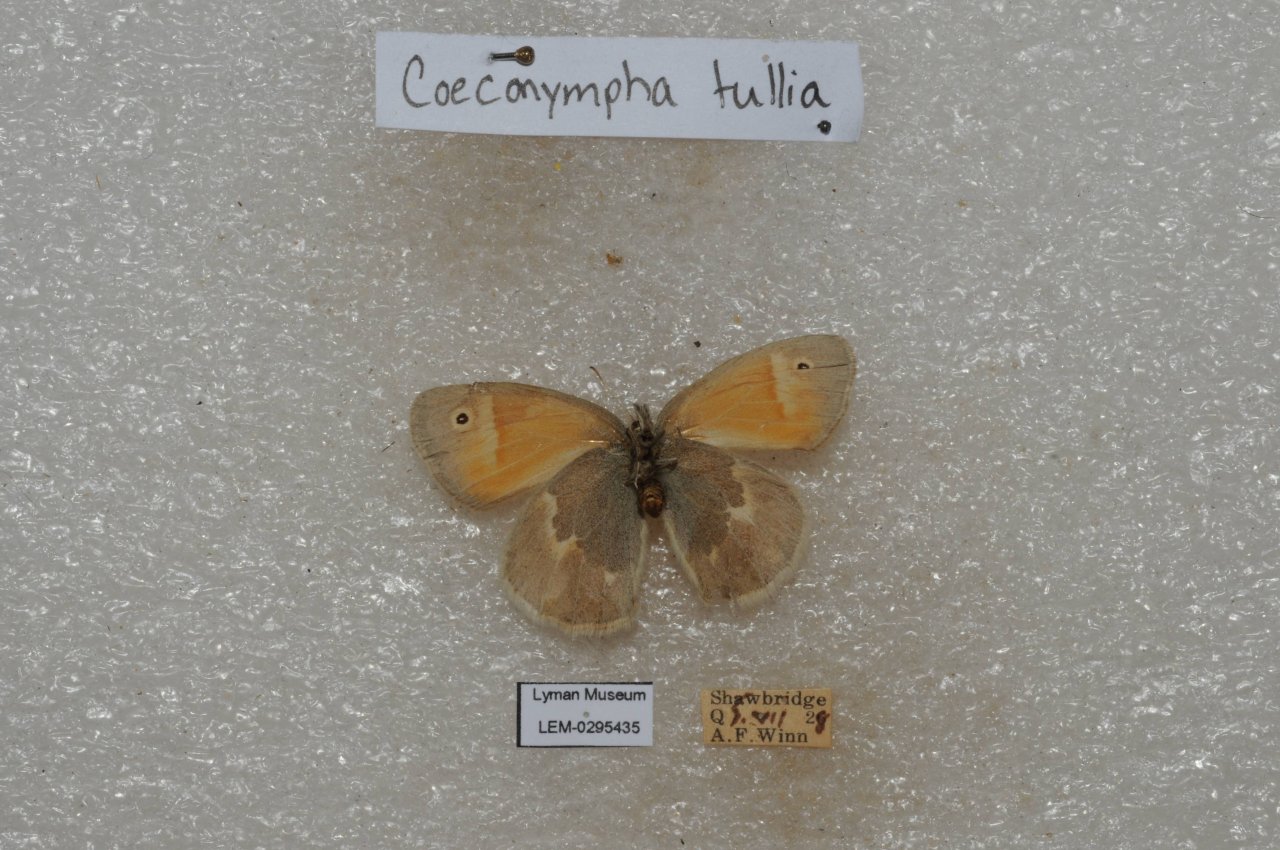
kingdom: Animalia
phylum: Arthropoda
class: Insecta
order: Lepidoptera
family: Nymphalidae
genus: Coenonympha
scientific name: Coenonympha tullia
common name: Large Heath
